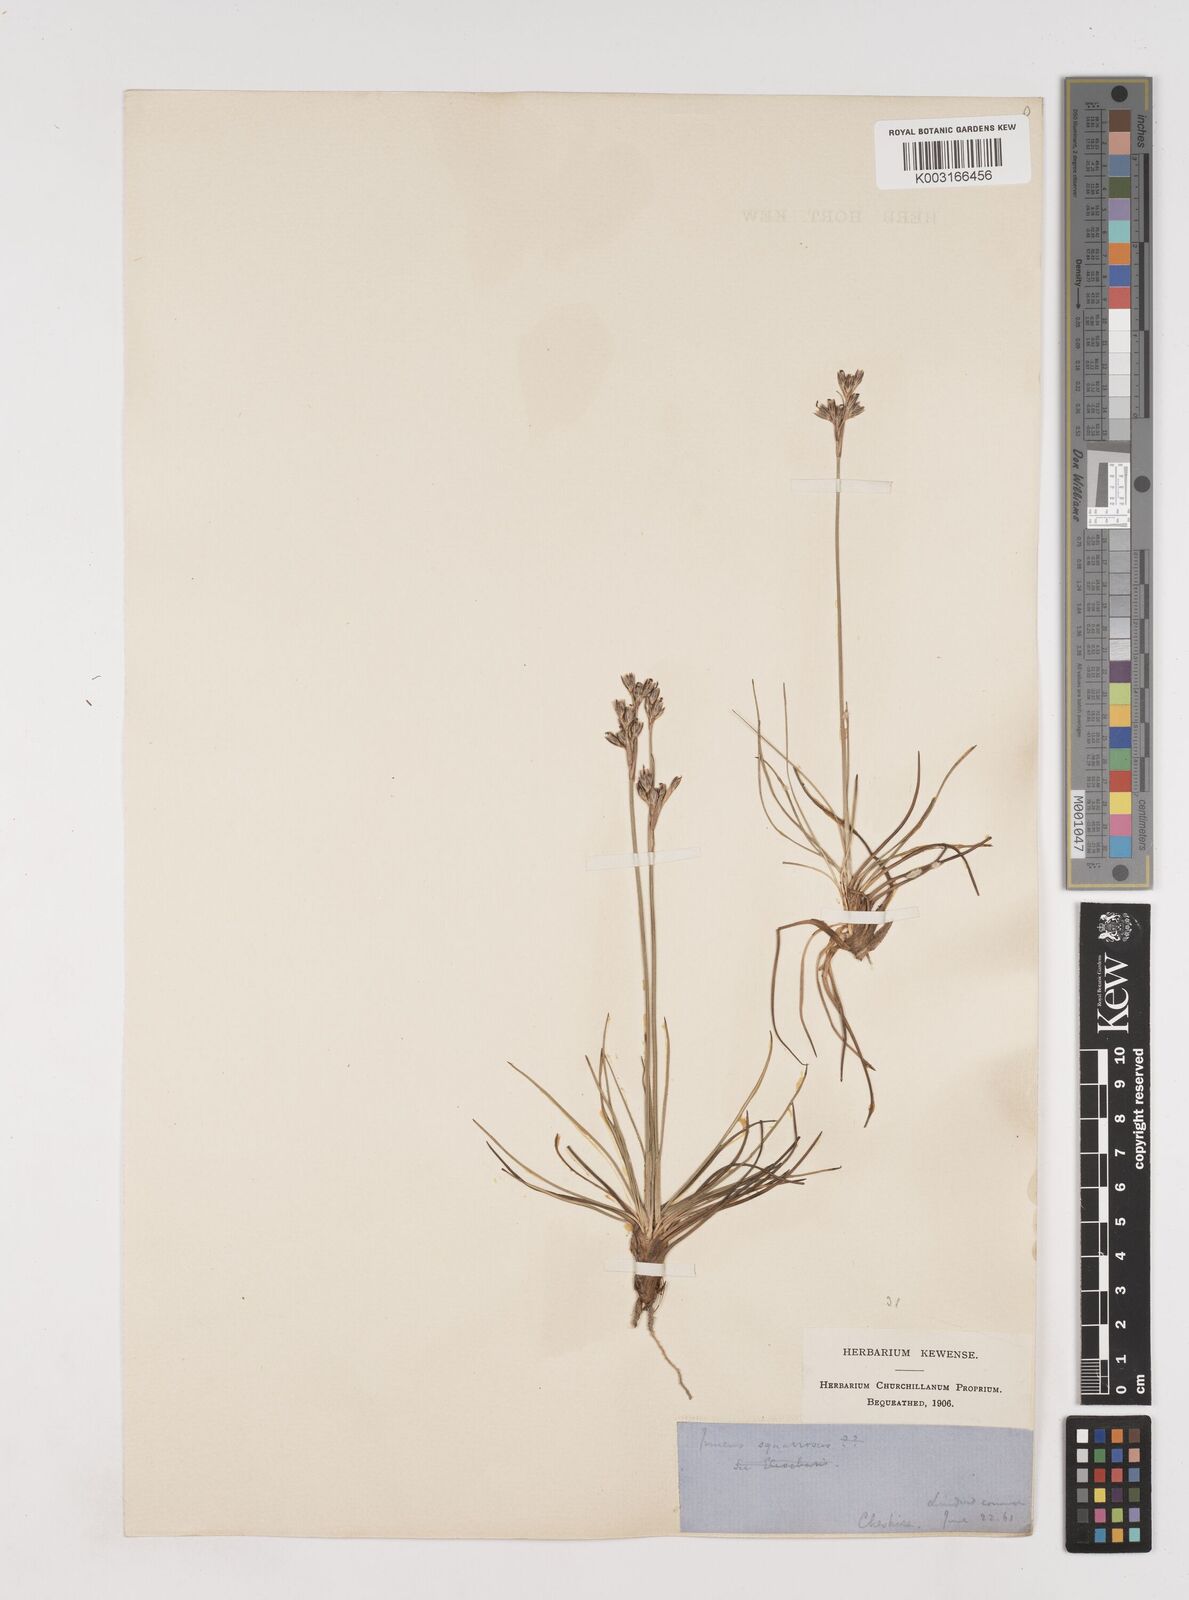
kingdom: Plantae
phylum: Tracheophyta
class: Liliopsida
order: Poales
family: Juncaceae
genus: Juncus
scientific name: Juncus squarrosus
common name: Heath rush
